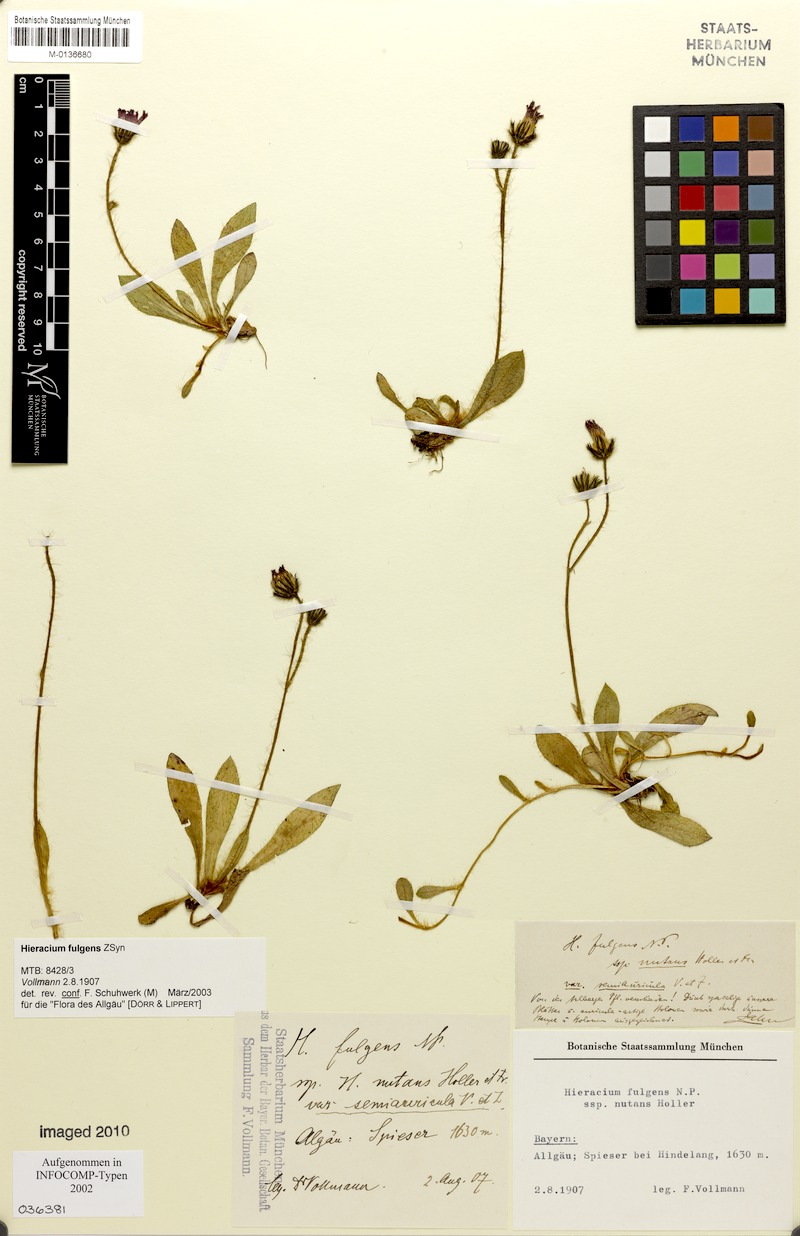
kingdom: Plantae
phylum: Tracheophyta
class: Magnoliopsida
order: Asterales
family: Asteraceae
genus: Pilosella
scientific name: Pilosella notha
